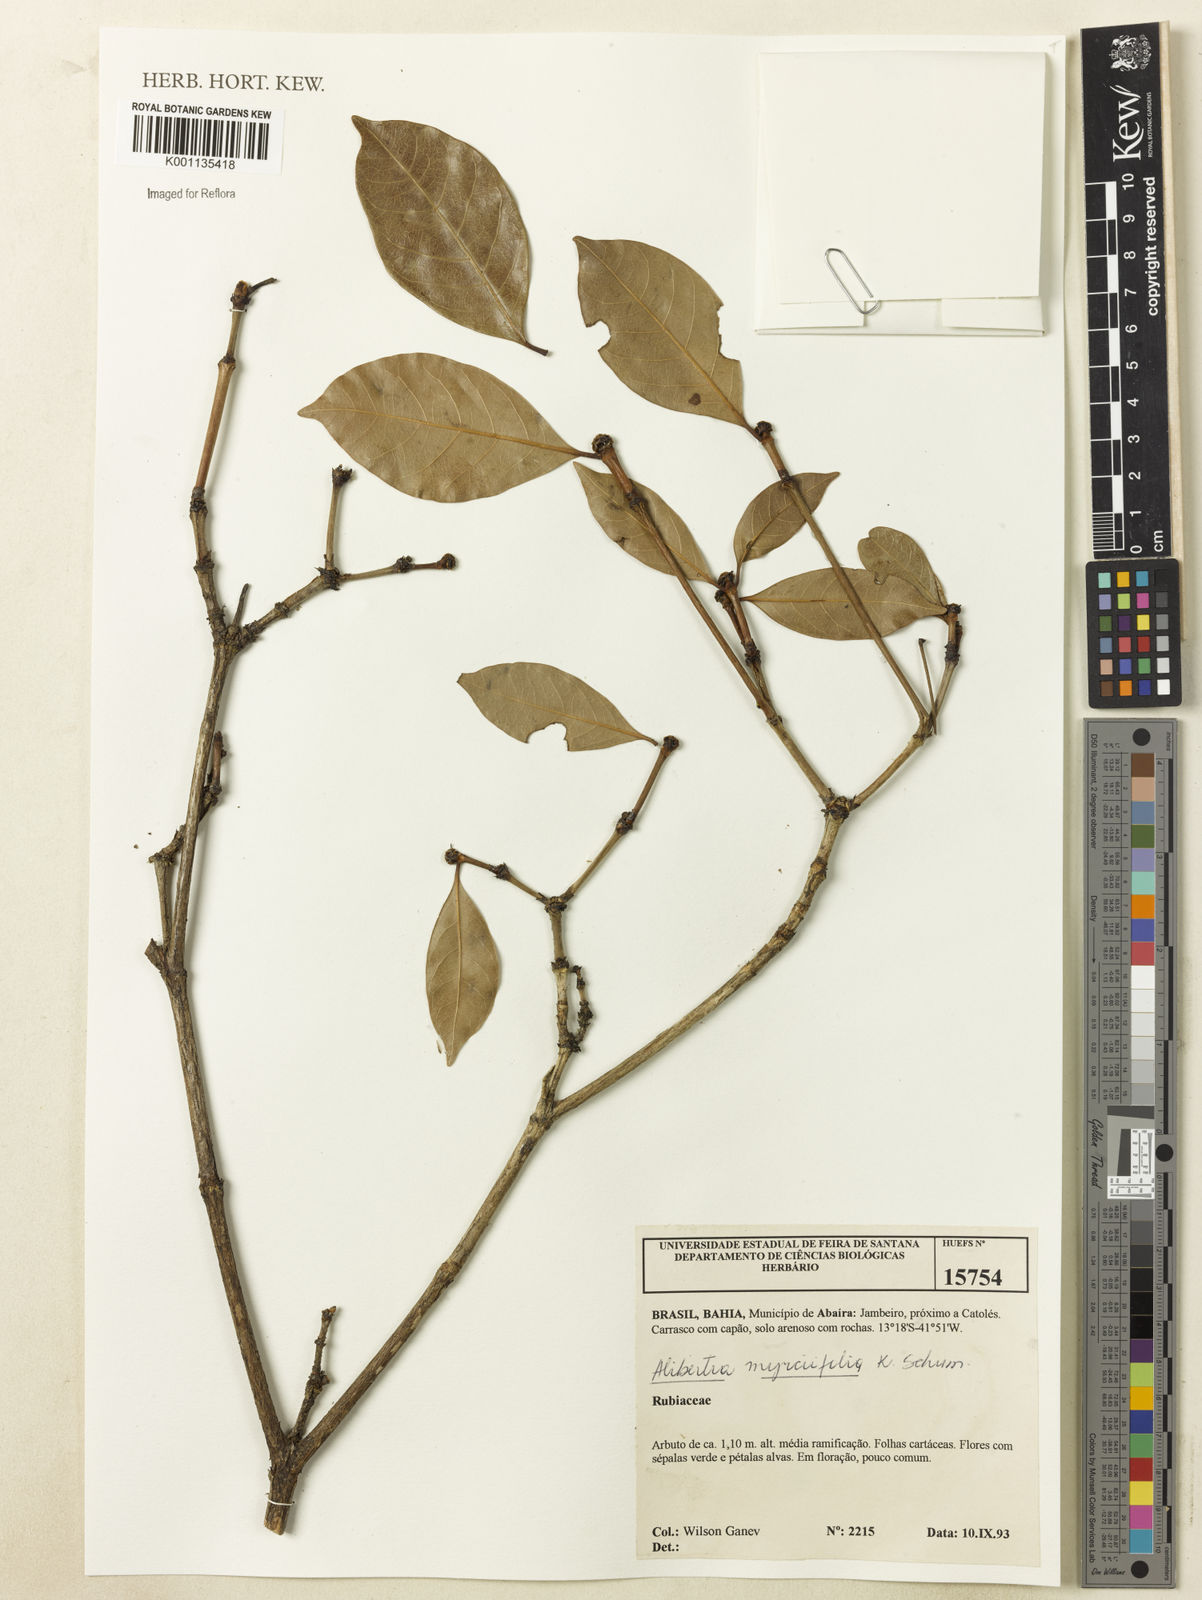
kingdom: Plantae
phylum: Tracheophyta
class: Magnoliopsida
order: Gentianales
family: Rubiaceae
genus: Cordiera
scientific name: Cordiera myrciifolia
